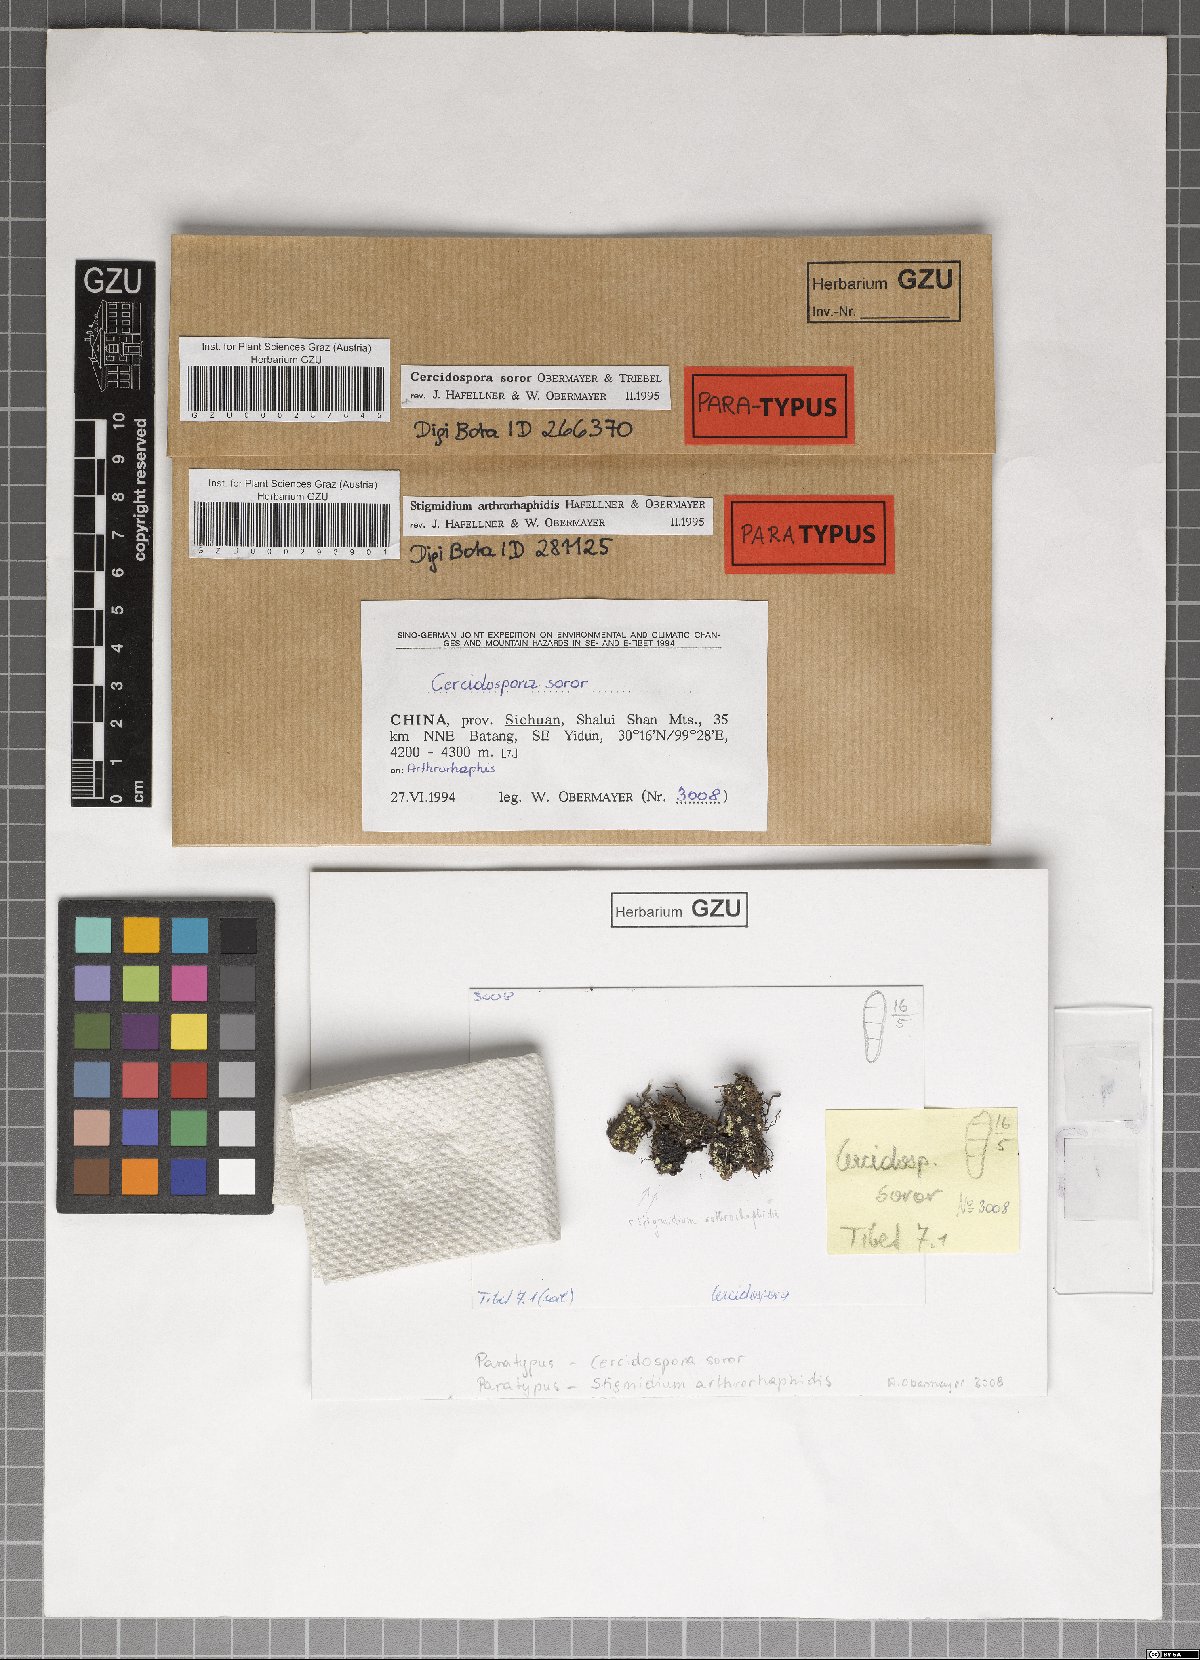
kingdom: Fungi
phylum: Ascomycota
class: Dothideomycetes
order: Dothideales
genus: Cercidospora
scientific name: Cercidospora soror
